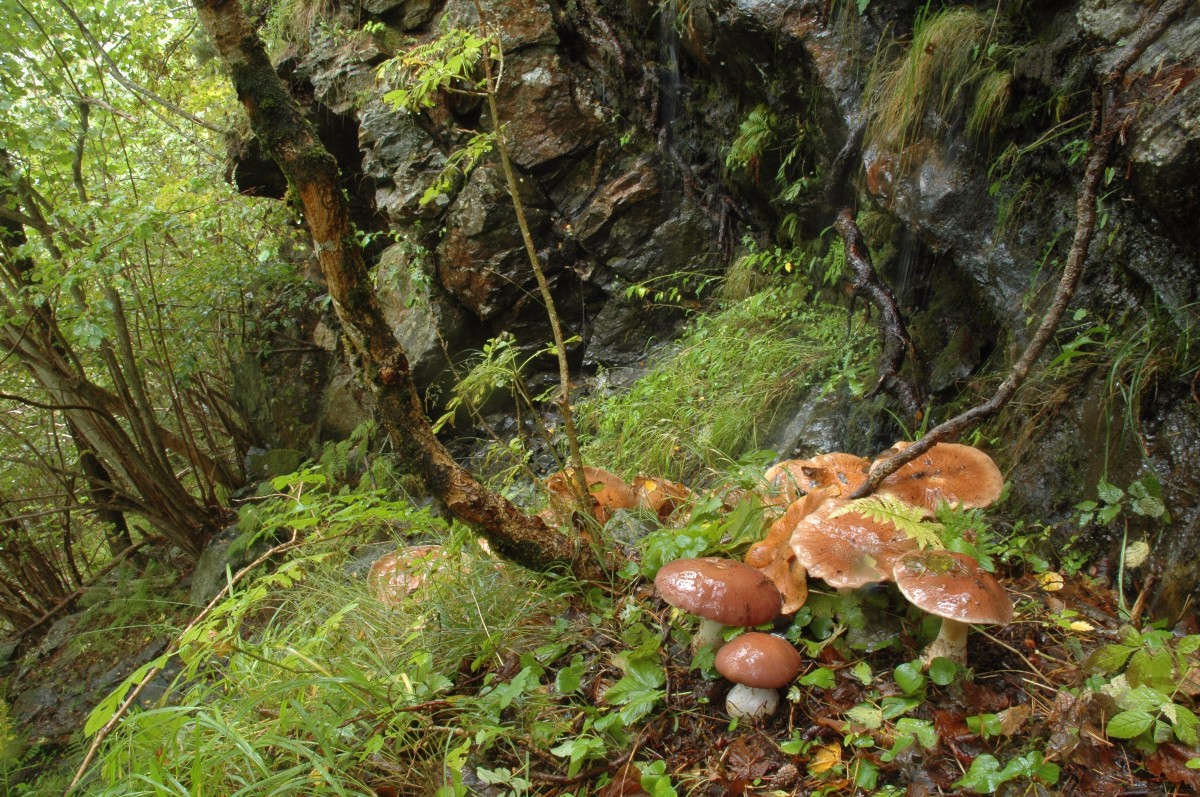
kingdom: Fungi
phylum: Basidiomycota
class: Agaricomycetes
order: Agaricales
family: Cortinariaceae
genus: Cortinarius
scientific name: Cortinarius praestans
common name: Goliath webcap
